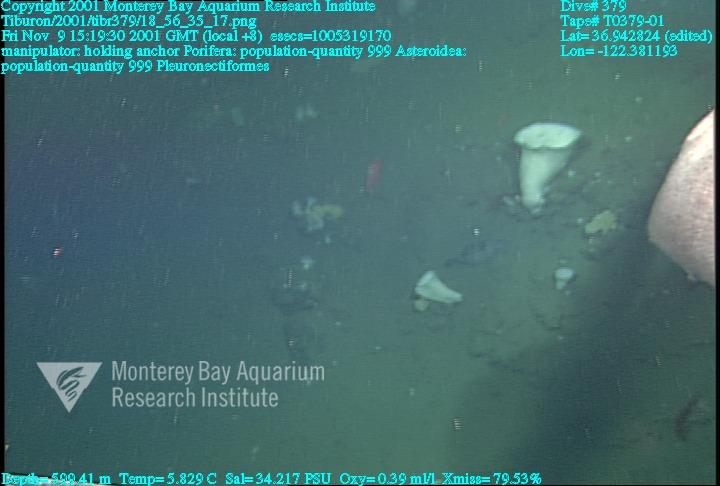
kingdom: Animalia
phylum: Porifera
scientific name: Porifera
